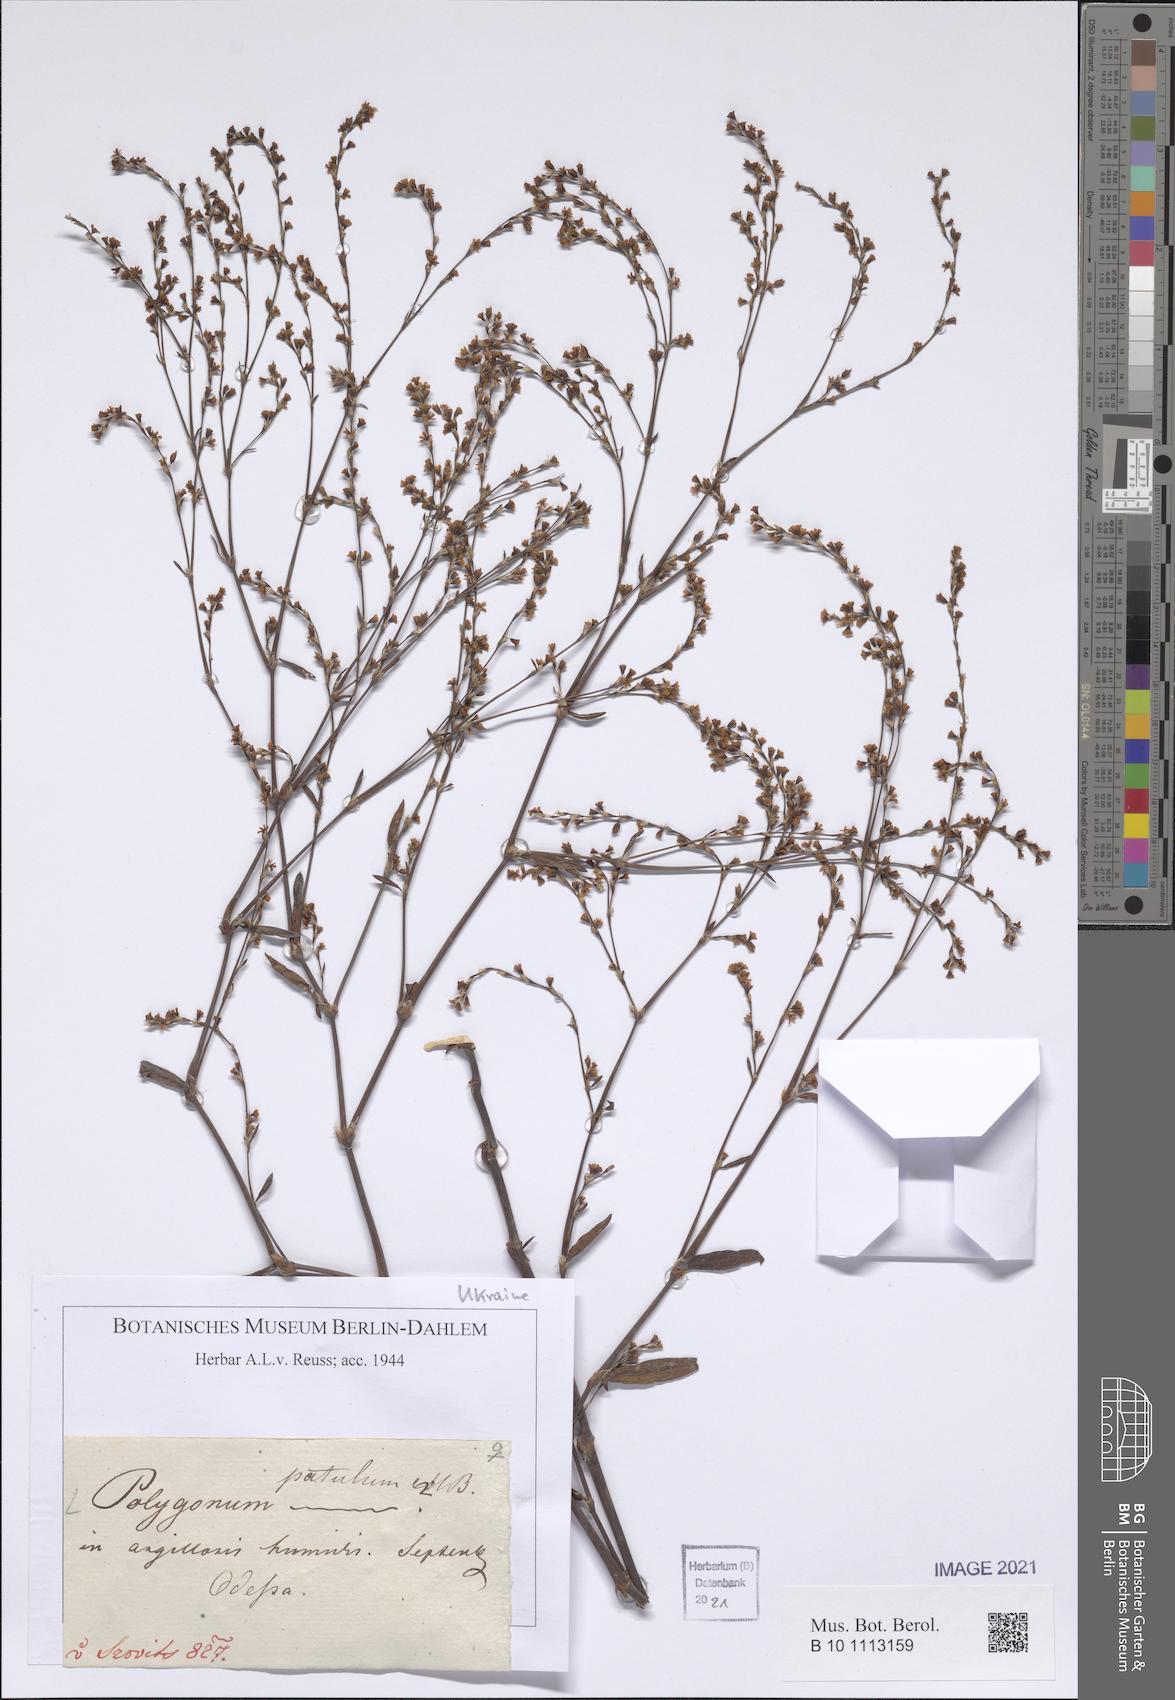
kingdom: Plantae
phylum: Tracheophyta
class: Magnoliopsida
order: Caryophyllales
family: Polygonaceae
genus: Polygonum
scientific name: Polygonum patulum
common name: Red-knotgrass
